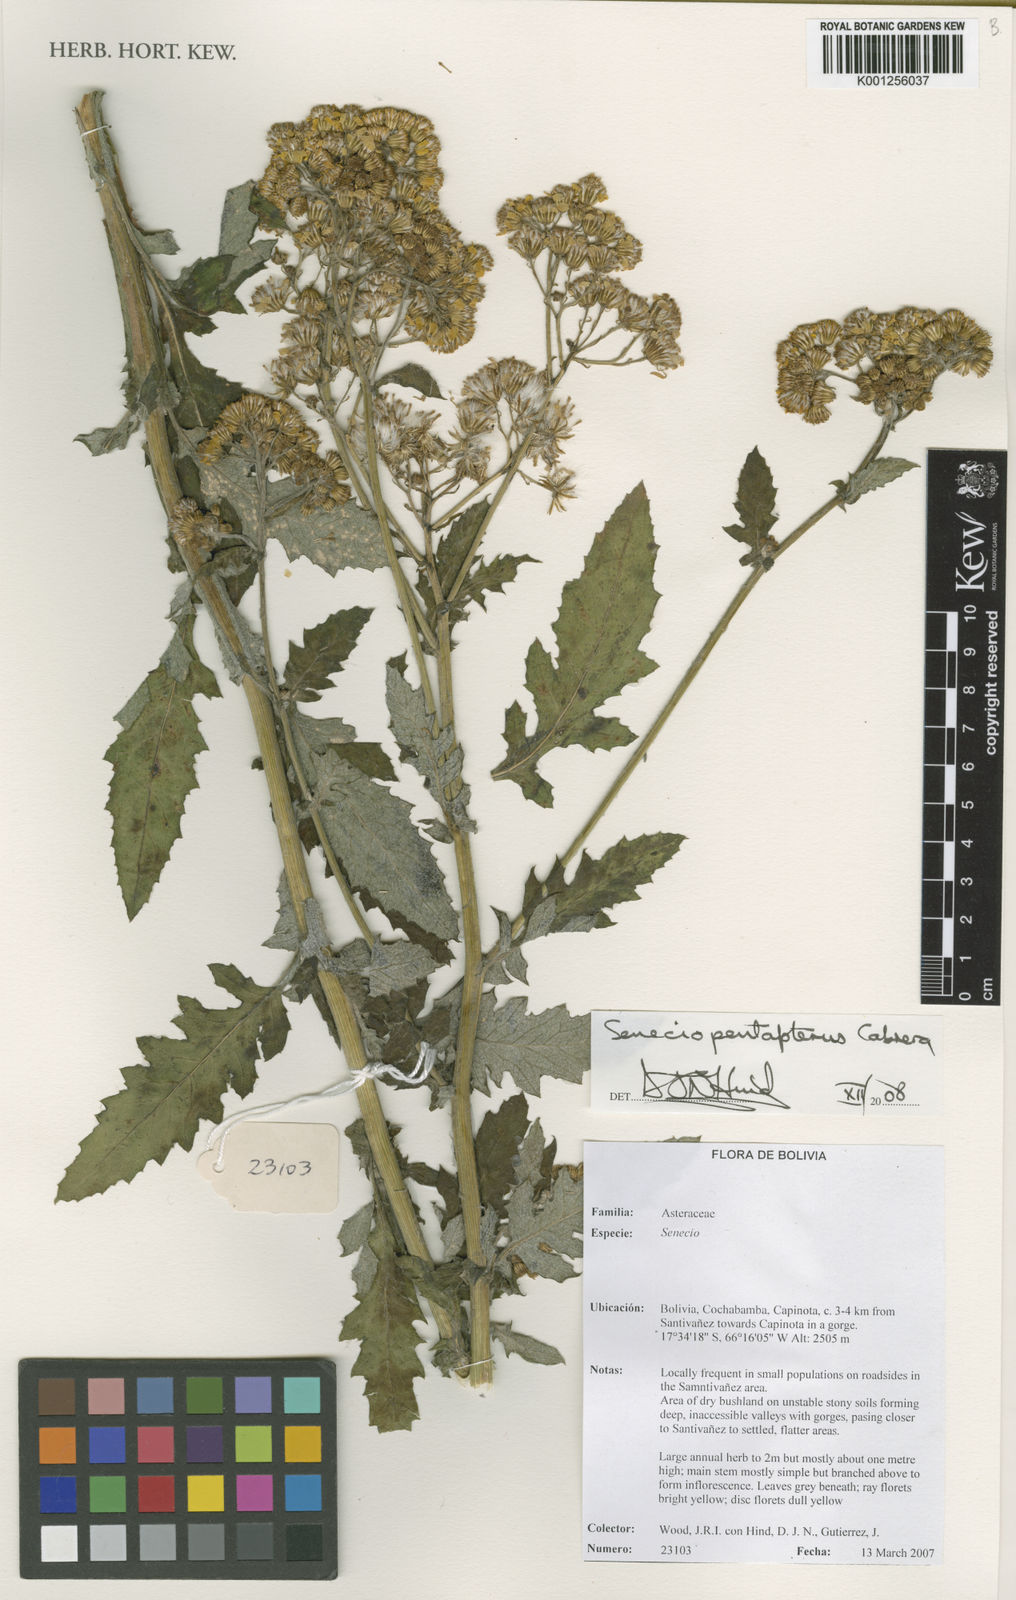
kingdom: Plantae
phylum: Tracheophyta
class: Magnoliopsida
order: Asterales
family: Asteraceae
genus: Senecio
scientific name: Senecio pentapterus
